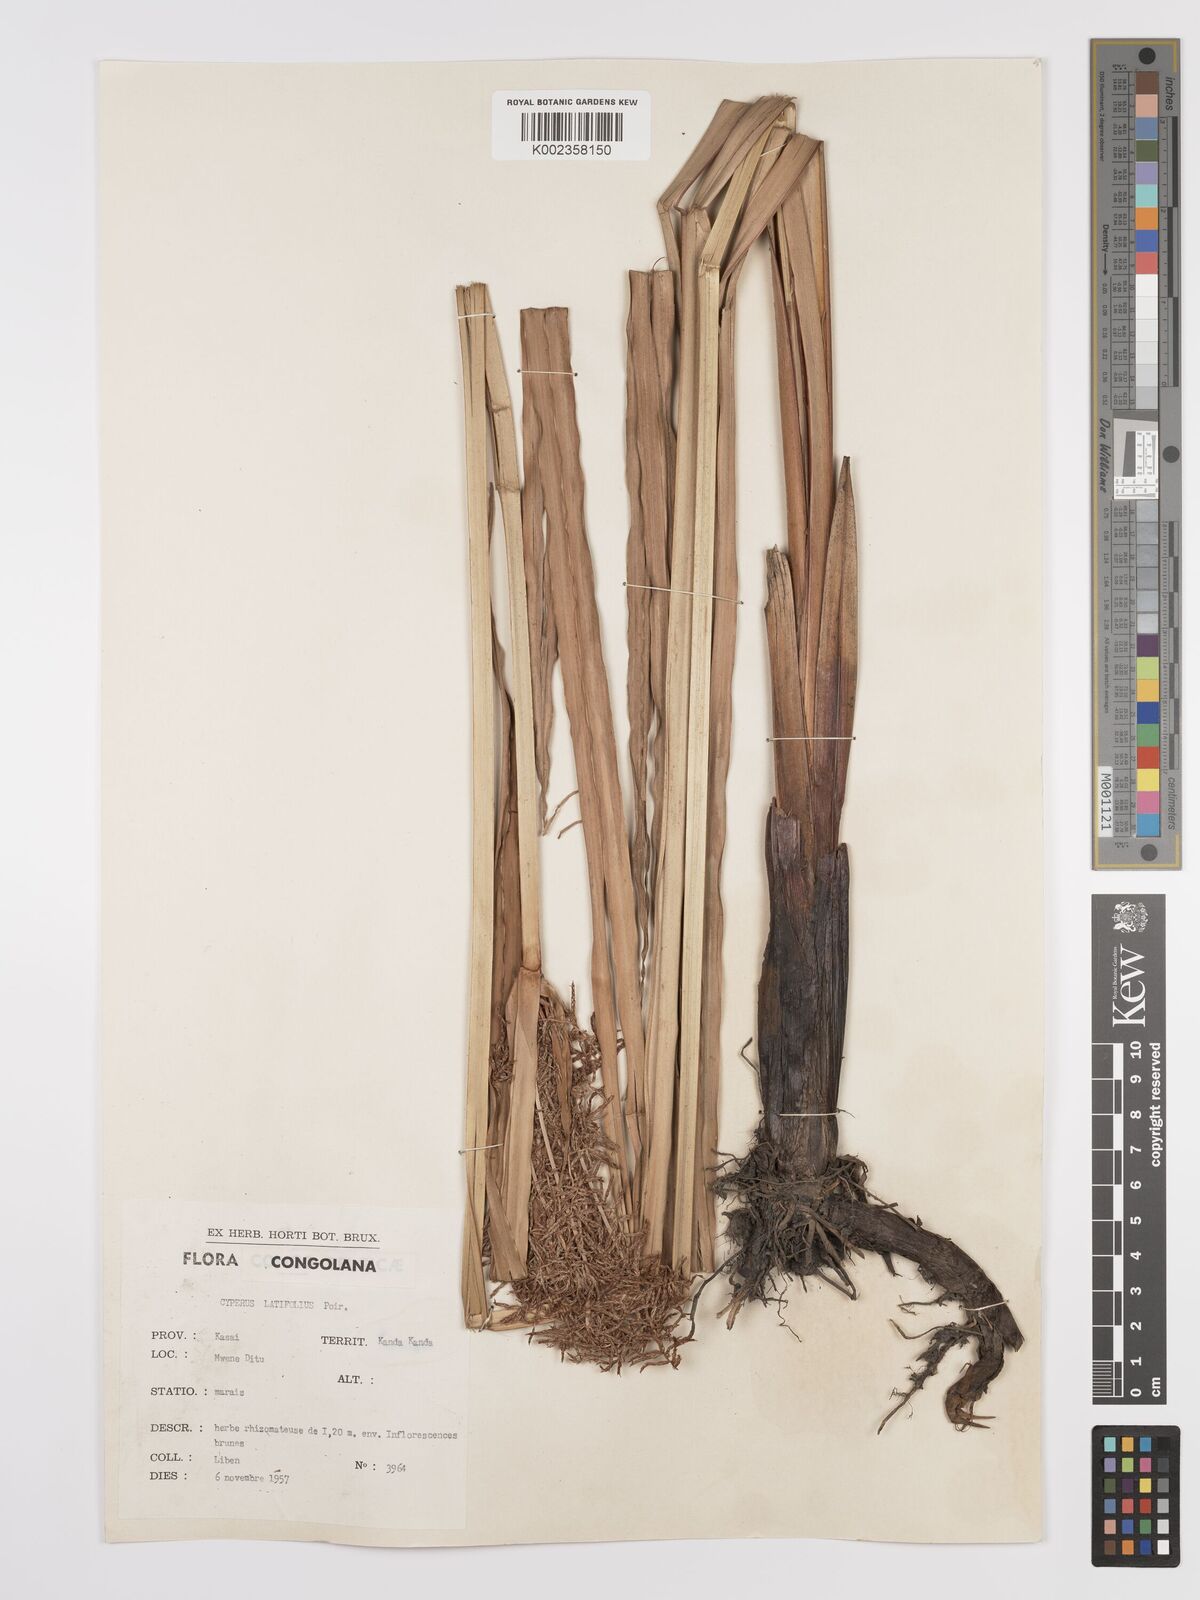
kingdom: Plantae
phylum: Tracheophyta
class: Liliopsida
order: Poales
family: Cyperaceae
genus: Cyperus
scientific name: Cyperus latifolius
